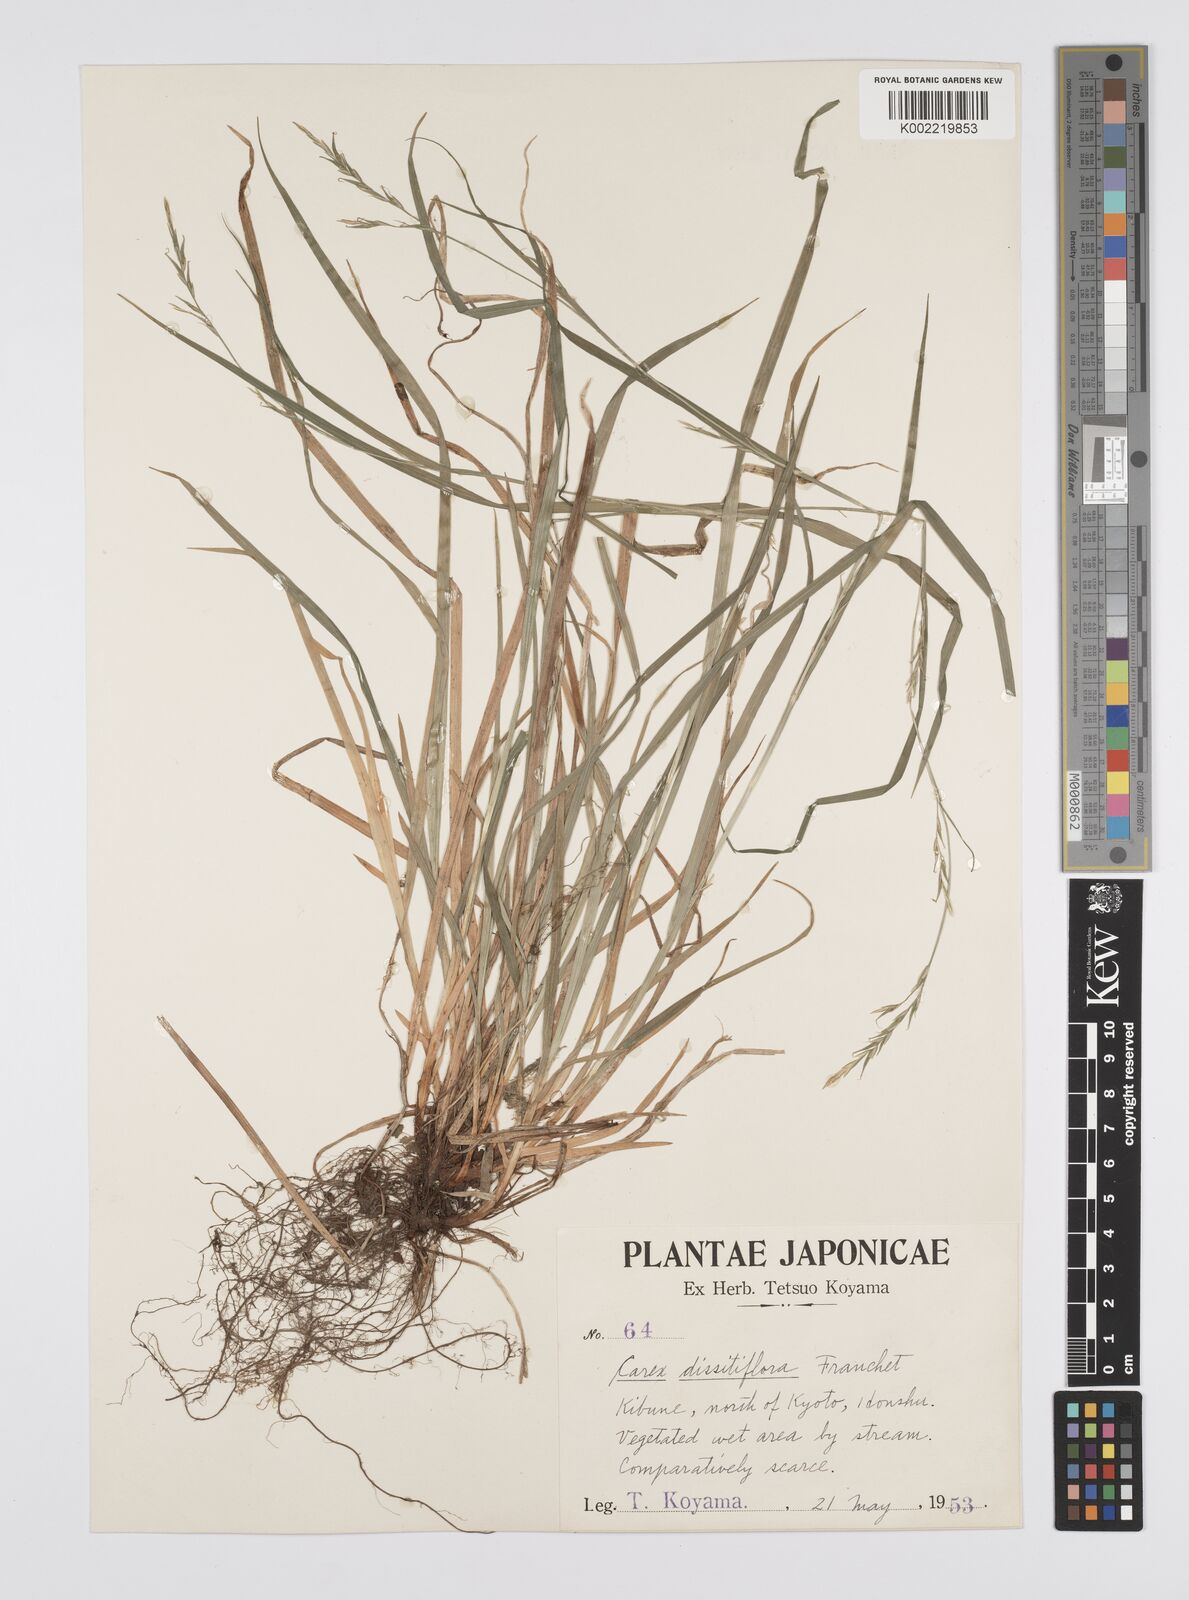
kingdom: Plantae
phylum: Tracheophyta
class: Liliopsida
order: Poales
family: Cyperaceae
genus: Carex
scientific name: Carex dissitiflora
